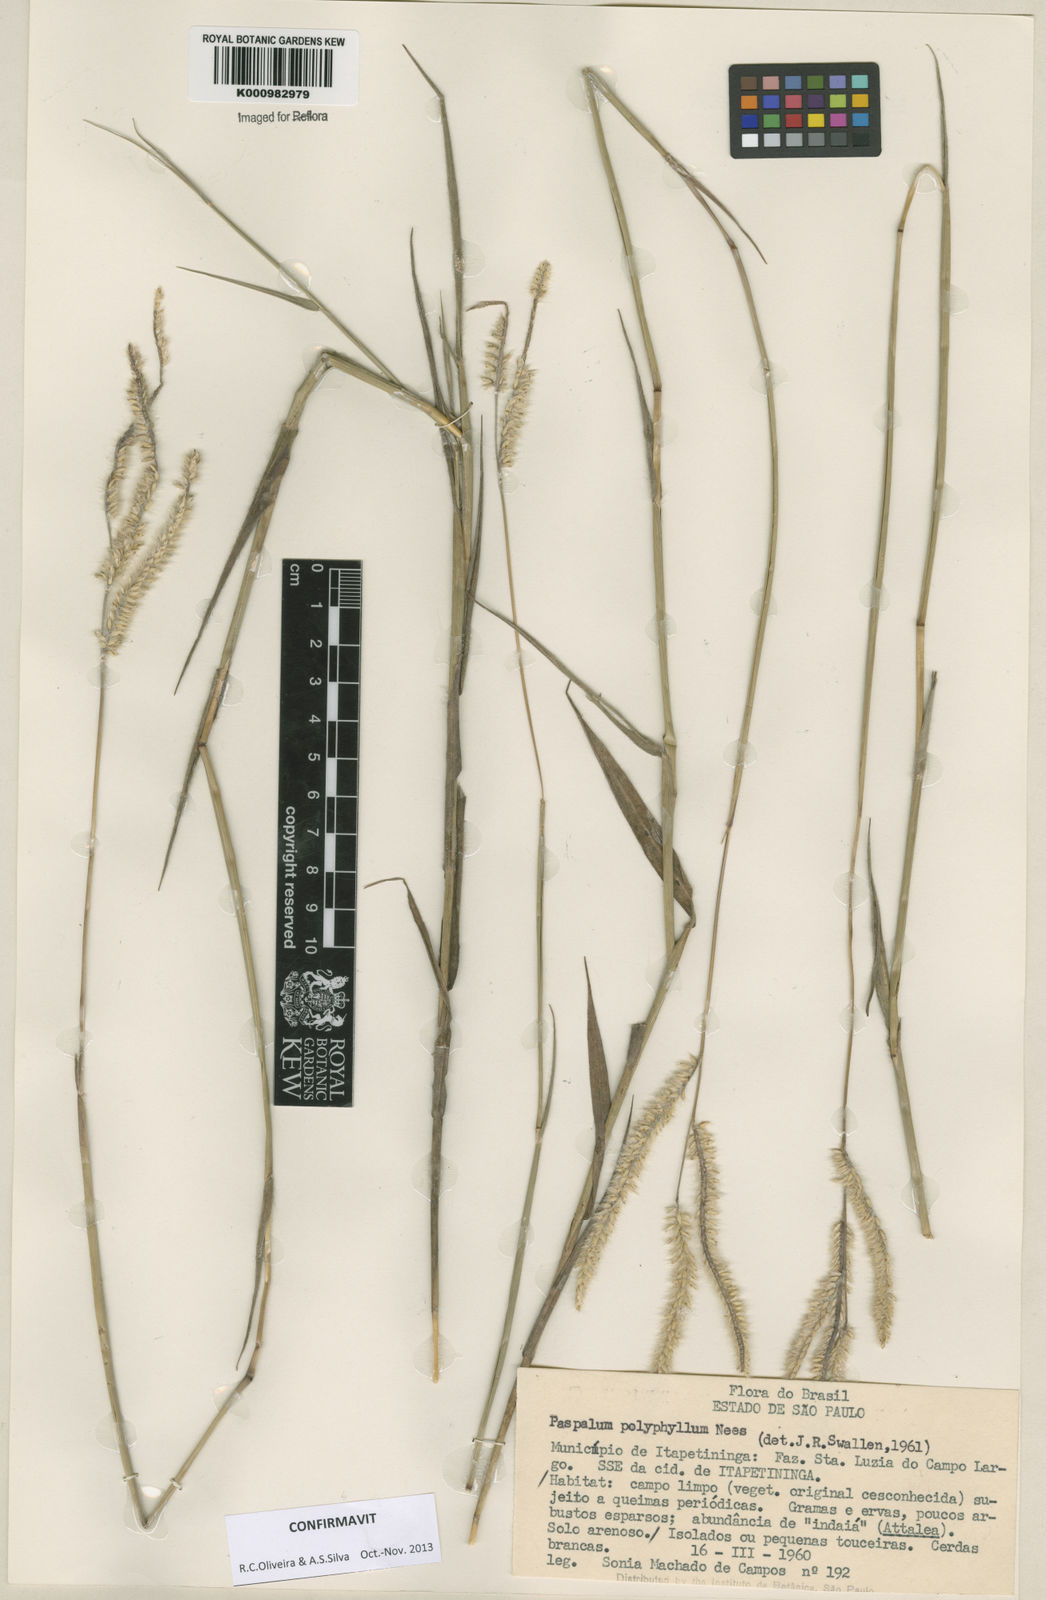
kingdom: Plantae
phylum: Tracheophyta
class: Liliopsida
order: Poales
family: Poaceae
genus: Paspalum
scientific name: Paspalum
